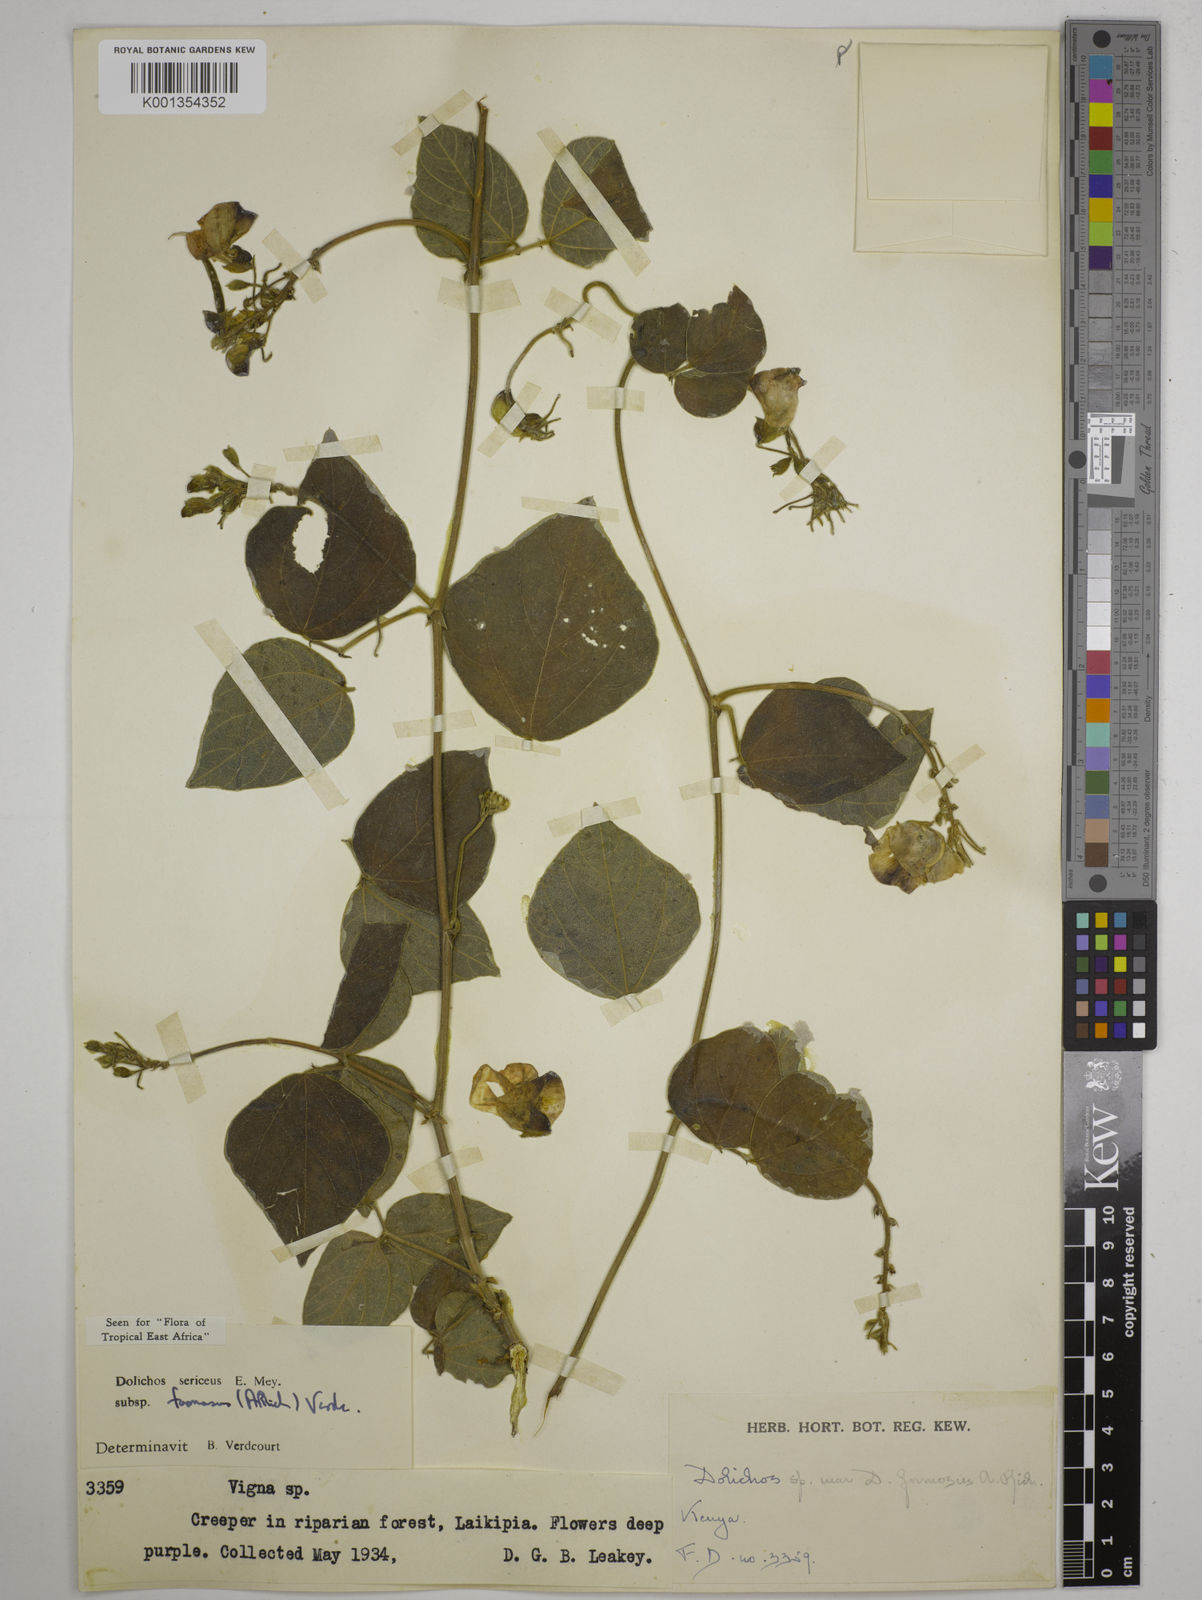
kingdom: Plantae
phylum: Tracheophyta
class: Magnoliopsida
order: Fabales
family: Fabaceae
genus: Dolichos
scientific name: Dolichos
